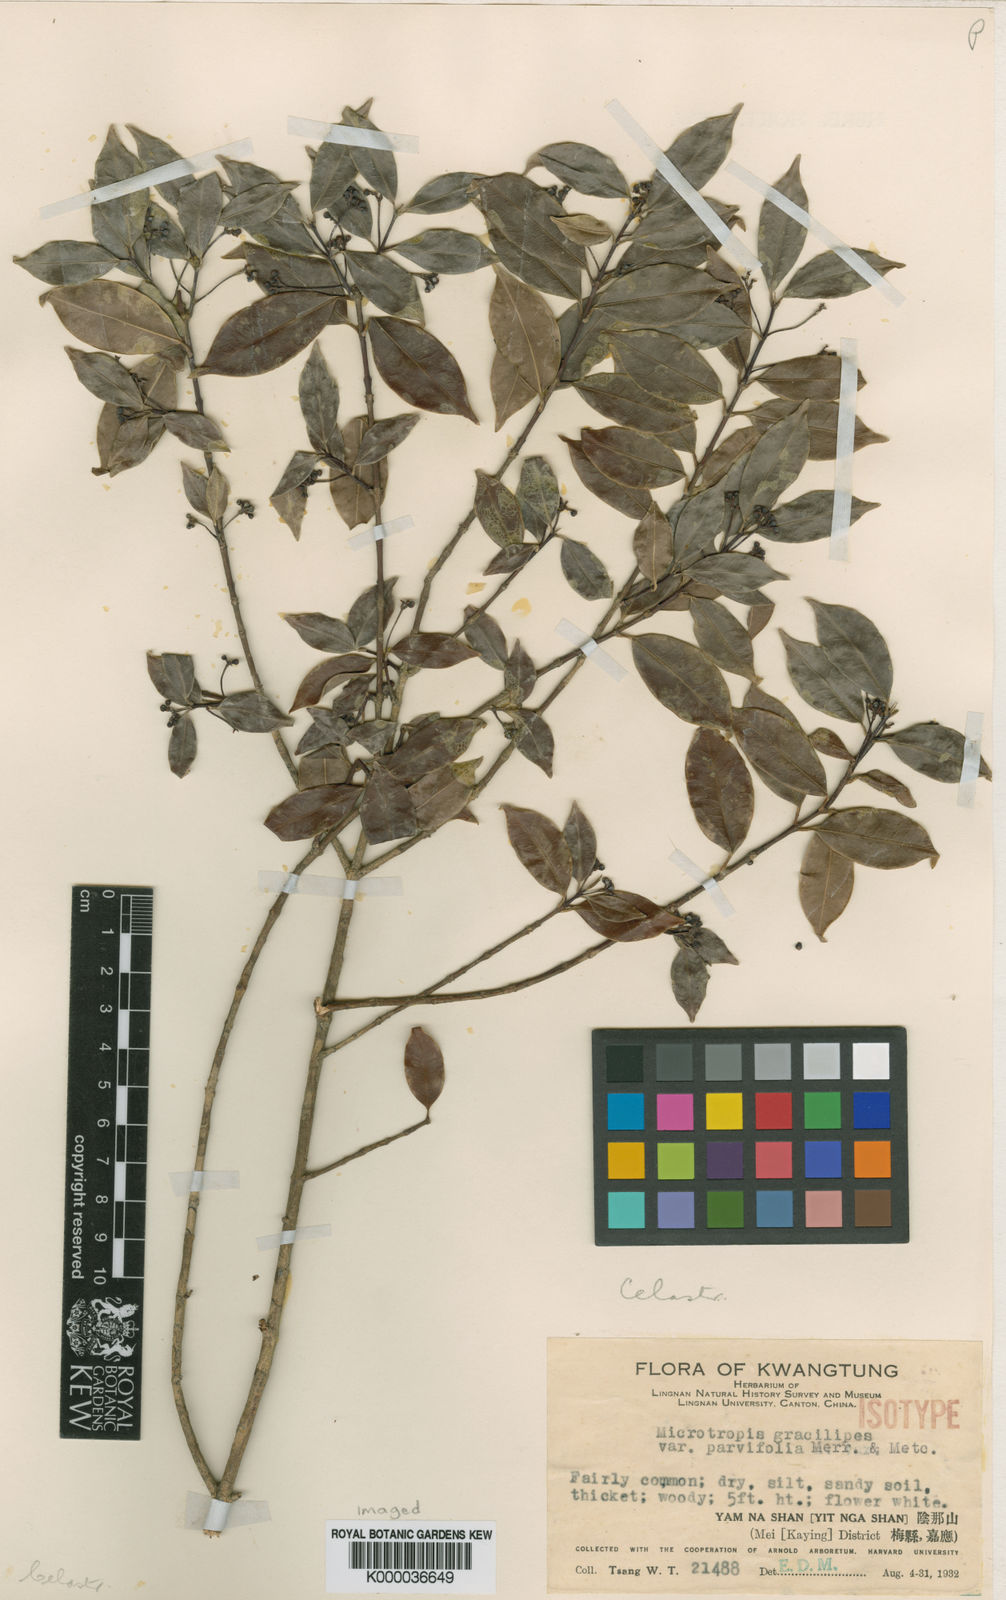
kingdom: Plantae
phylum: Tracheophyta
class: Magnoliopsida
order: Celastrales
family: Celastraceae
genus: Microtropis
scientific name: Microtropis gracilipes
